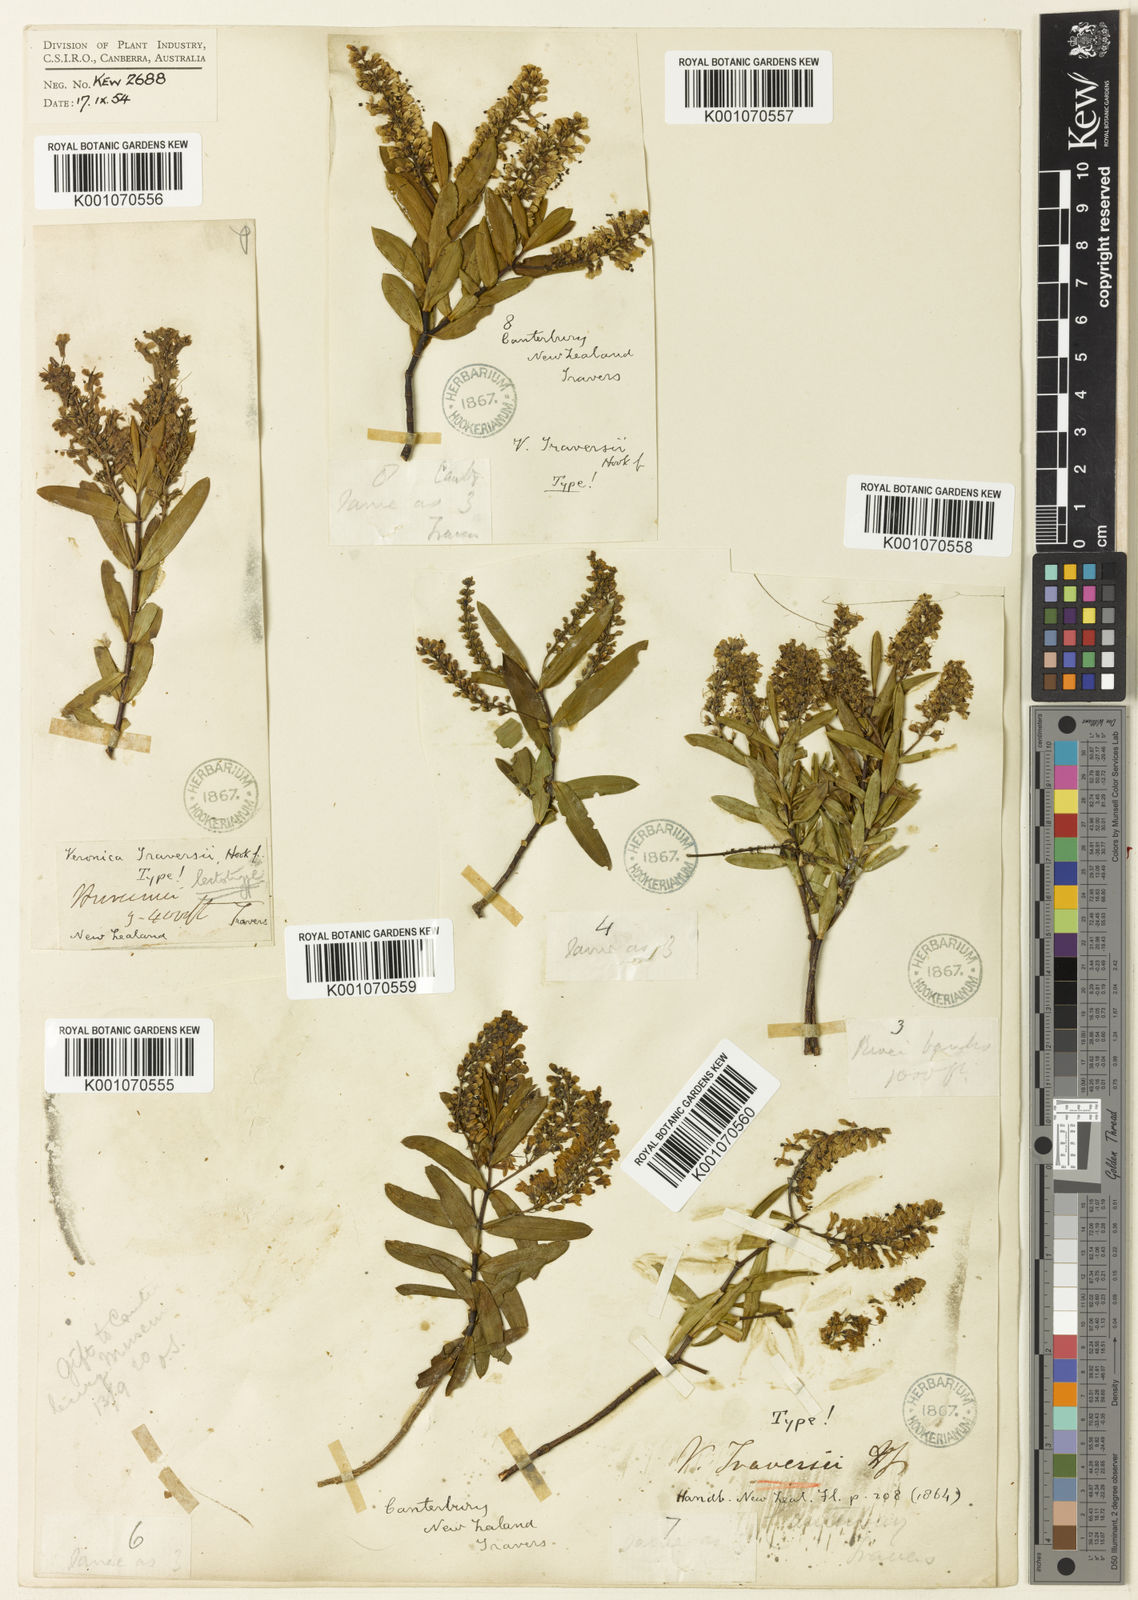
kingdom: Plantae
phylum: Tracheophyta
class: Magnoliopsida
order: Lamiales
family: Plantaginaceae
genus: Veronica
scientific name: Veronica traversii
